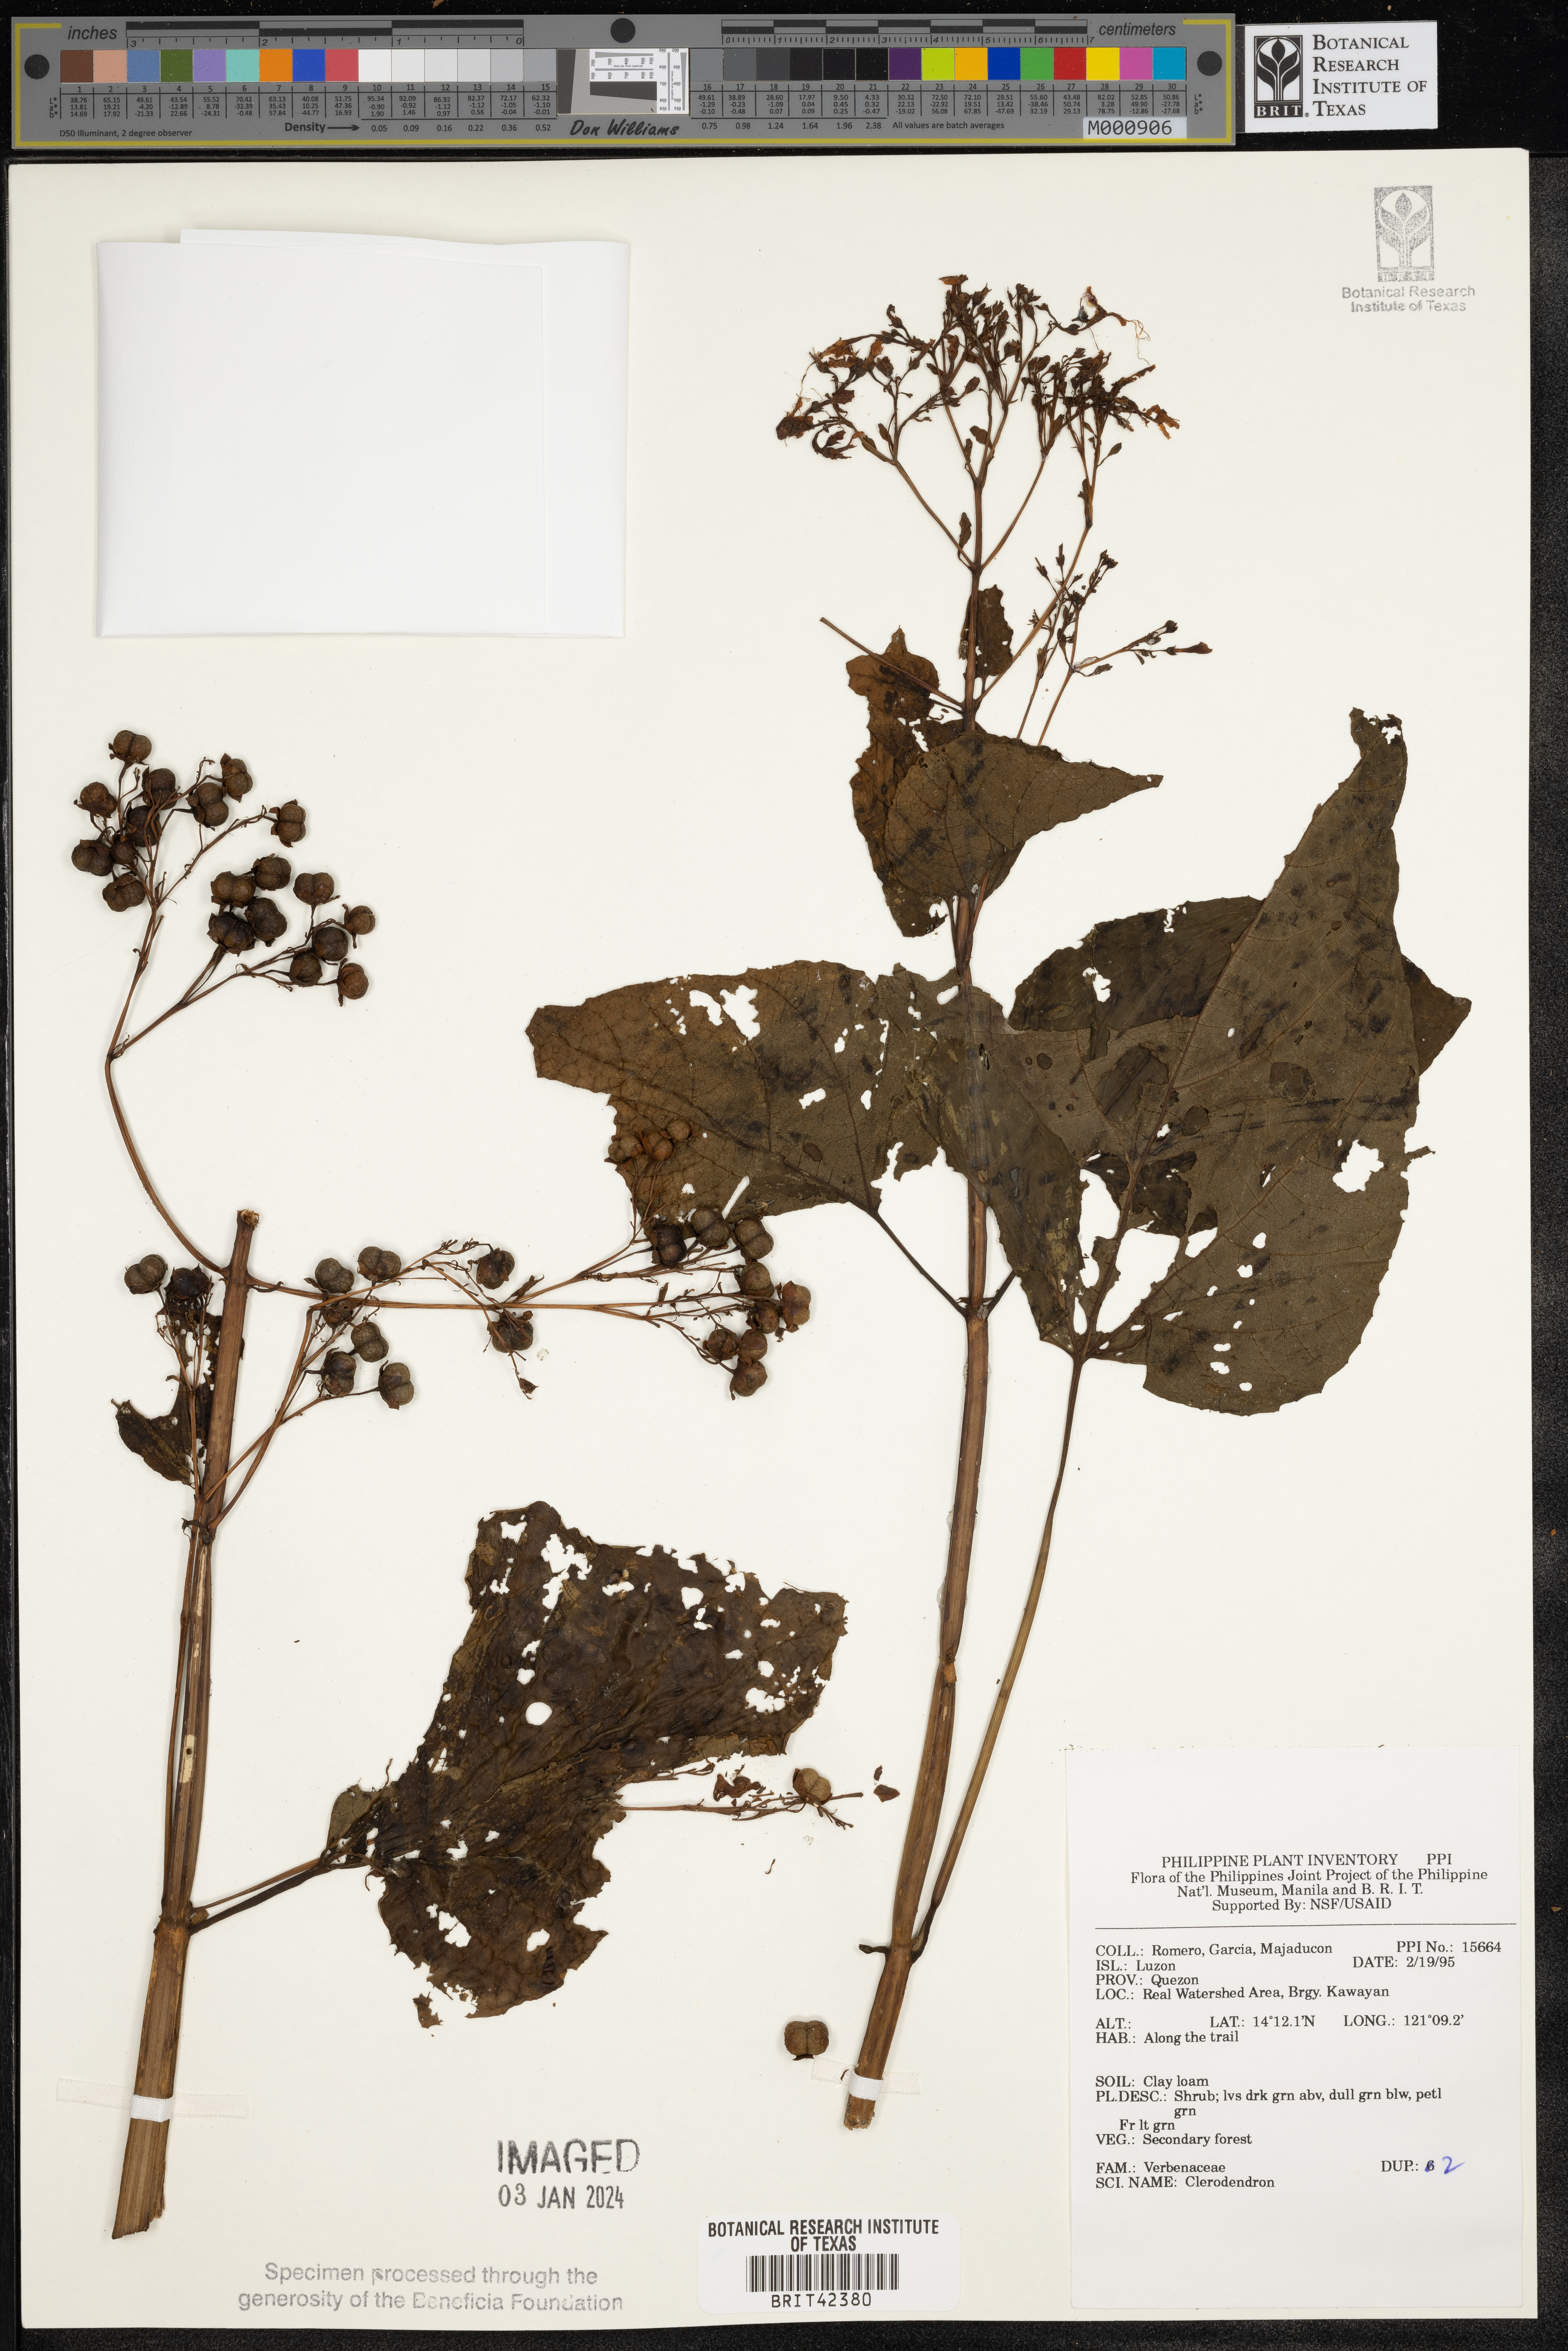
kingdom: Plantae
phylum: Tracheophyta
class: Magnoliopsida
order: Lamiales
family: Lamiaceae
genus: Clerodendrum
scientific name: Clerodendrum
